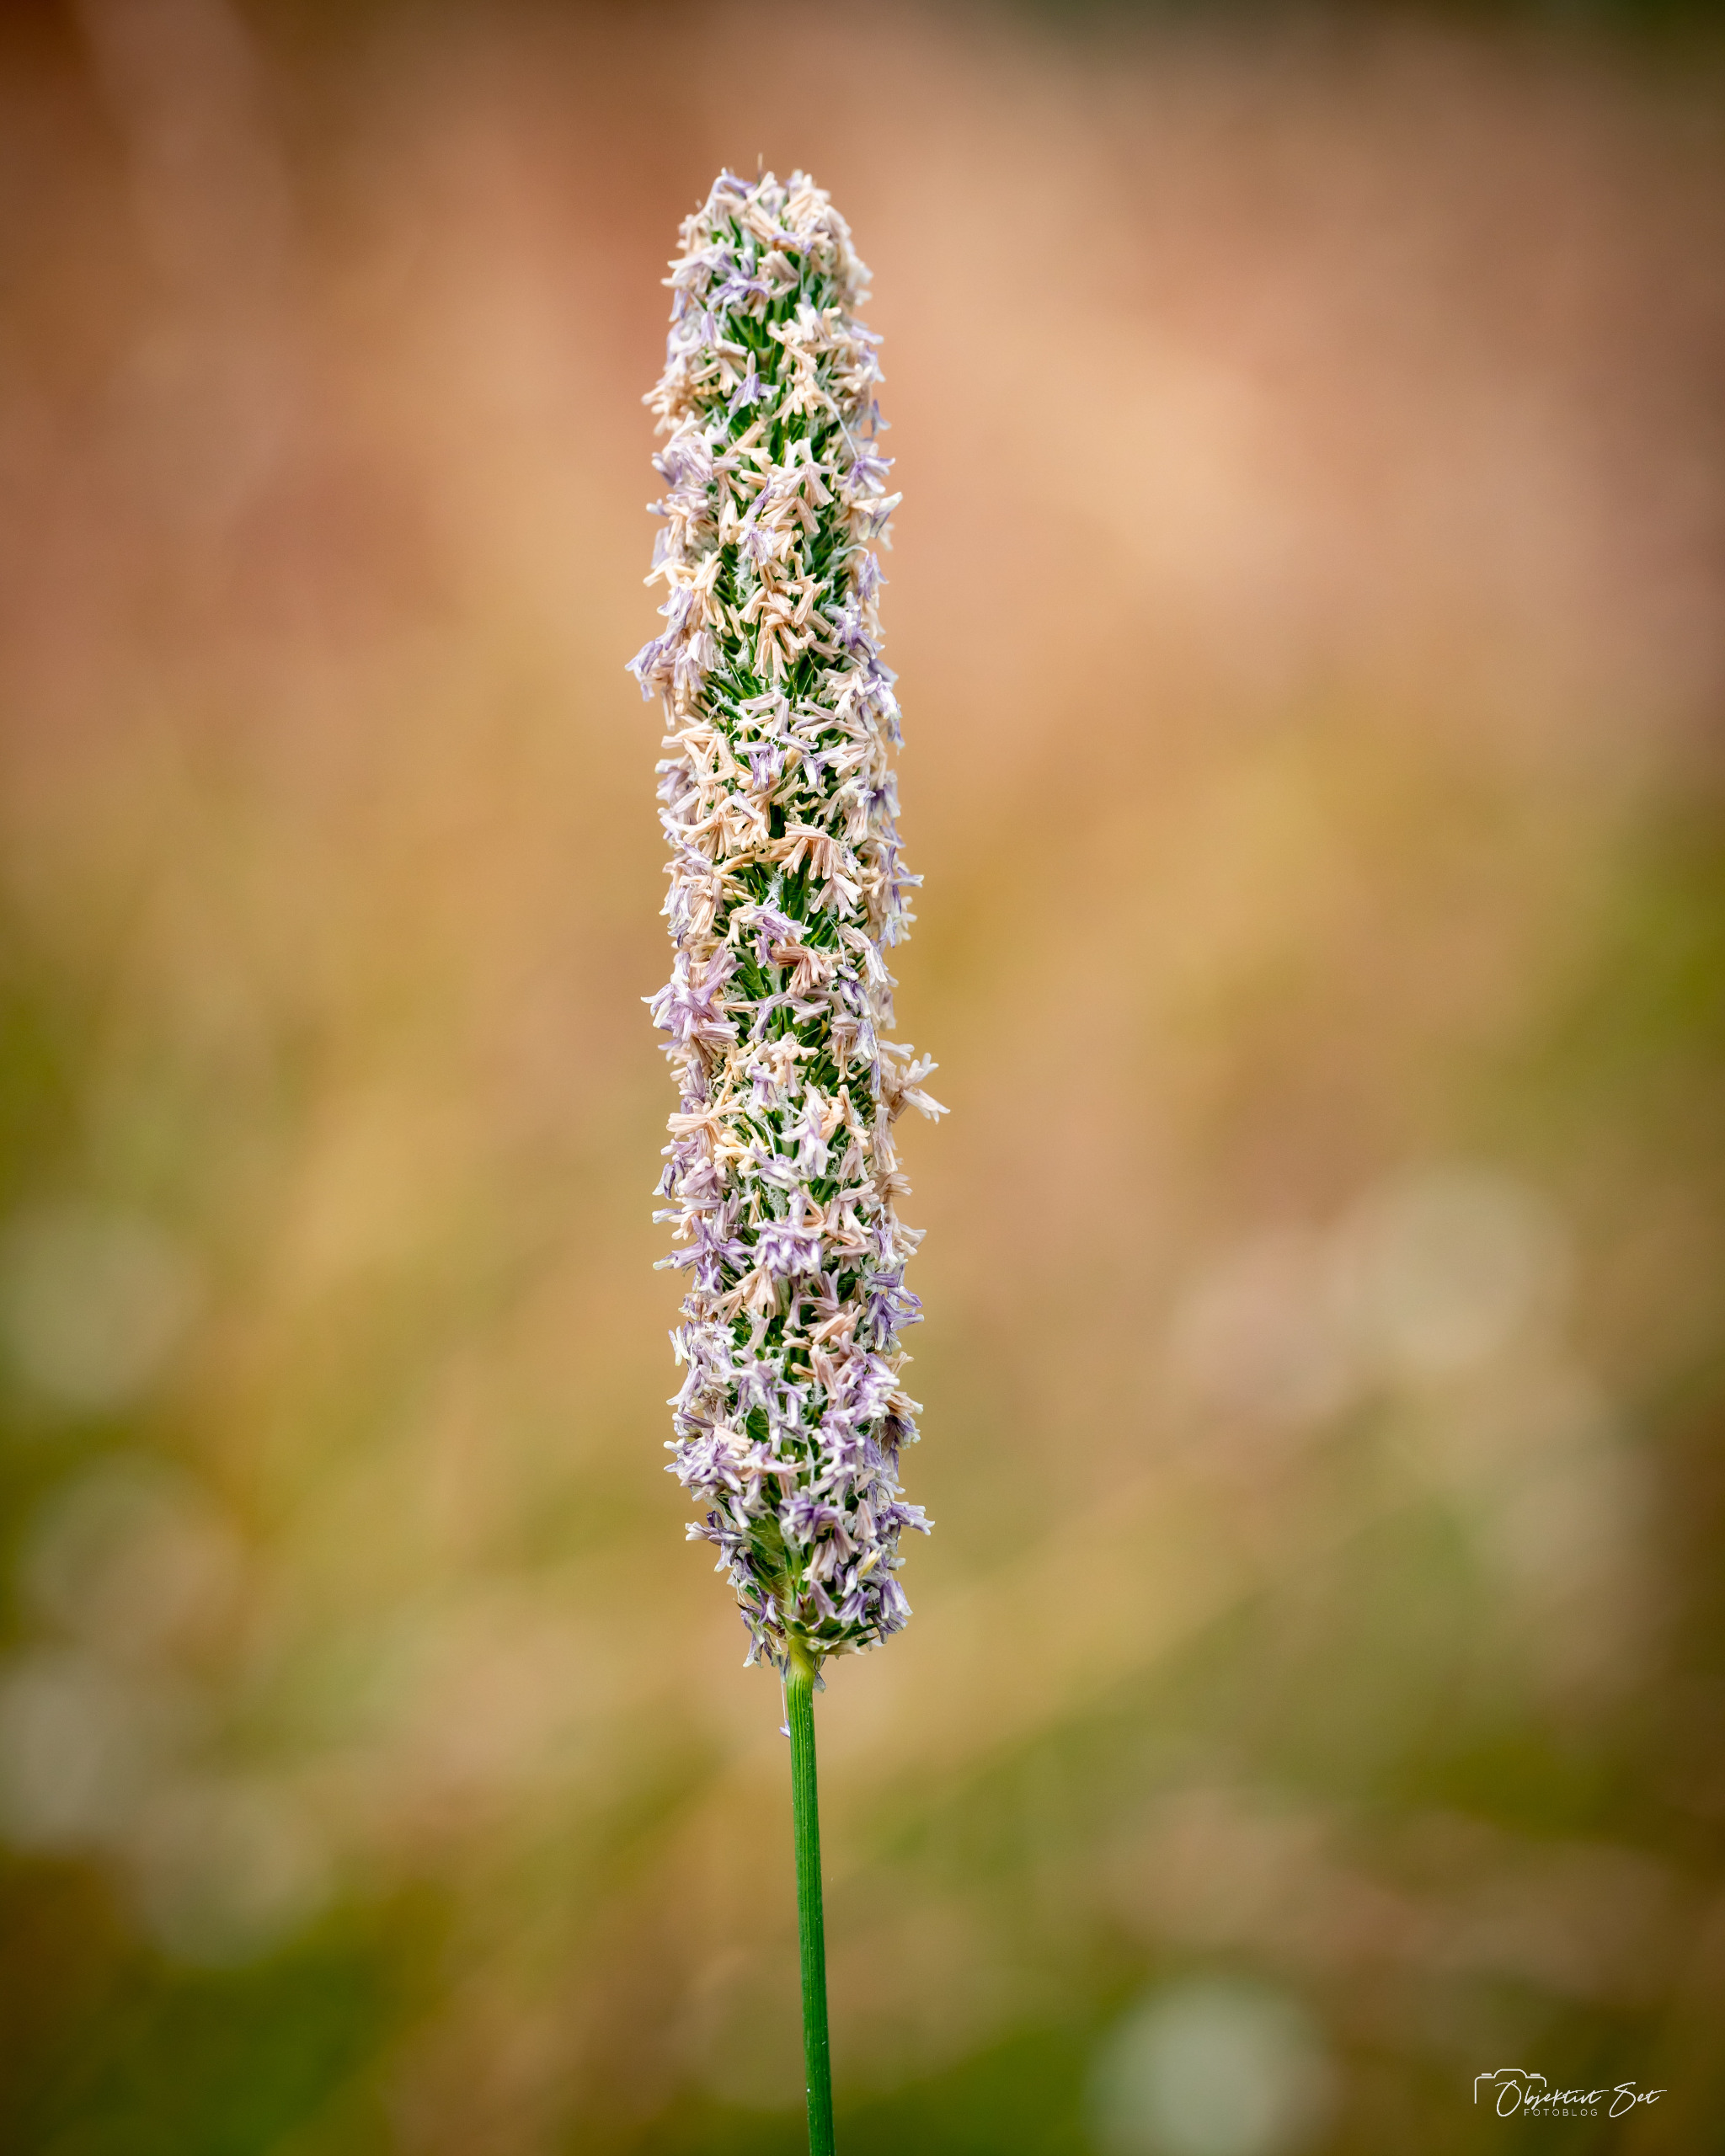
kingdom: Plantae
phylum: Tracheophyta
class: Liliopsida
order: Poales
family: Poaceae
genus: Phleum
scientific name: Phleum pratense
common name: Eng-rottehale
